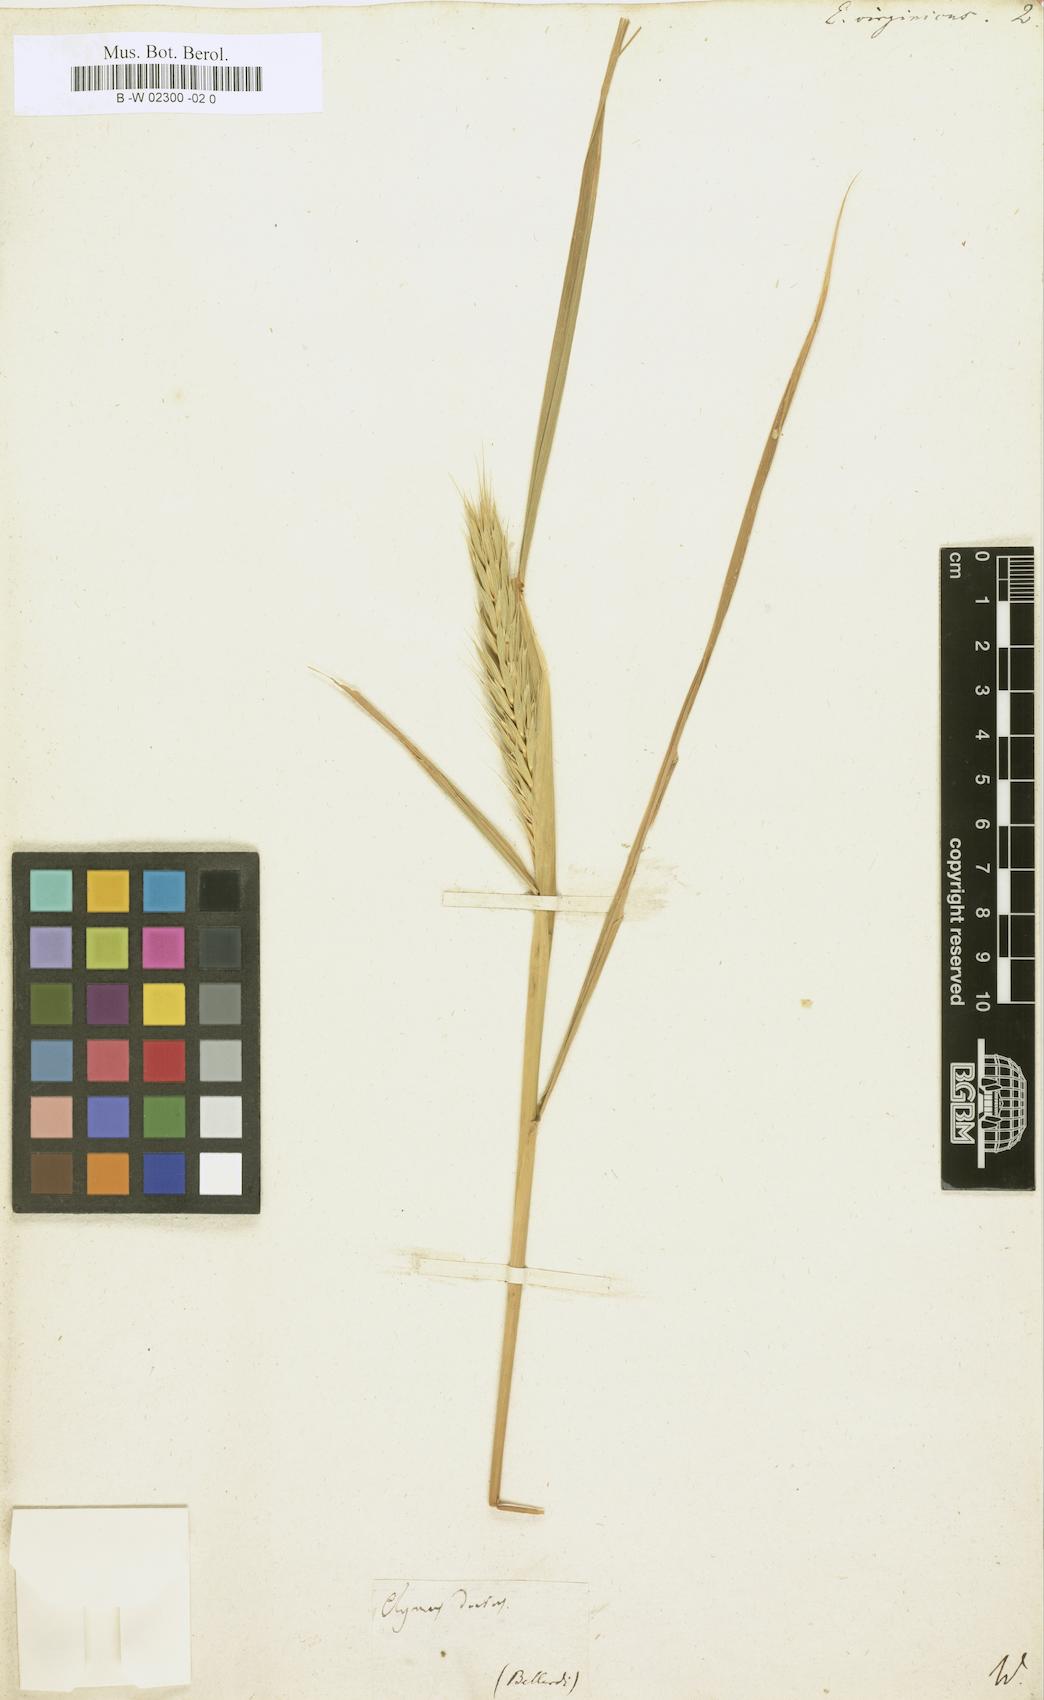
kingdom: Plantae
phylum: Tracheophyta
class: Liliopsida
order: Poales
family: Poaceae
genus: Elymus
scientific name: Elymus virginicus
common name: Common eastern wildrye
